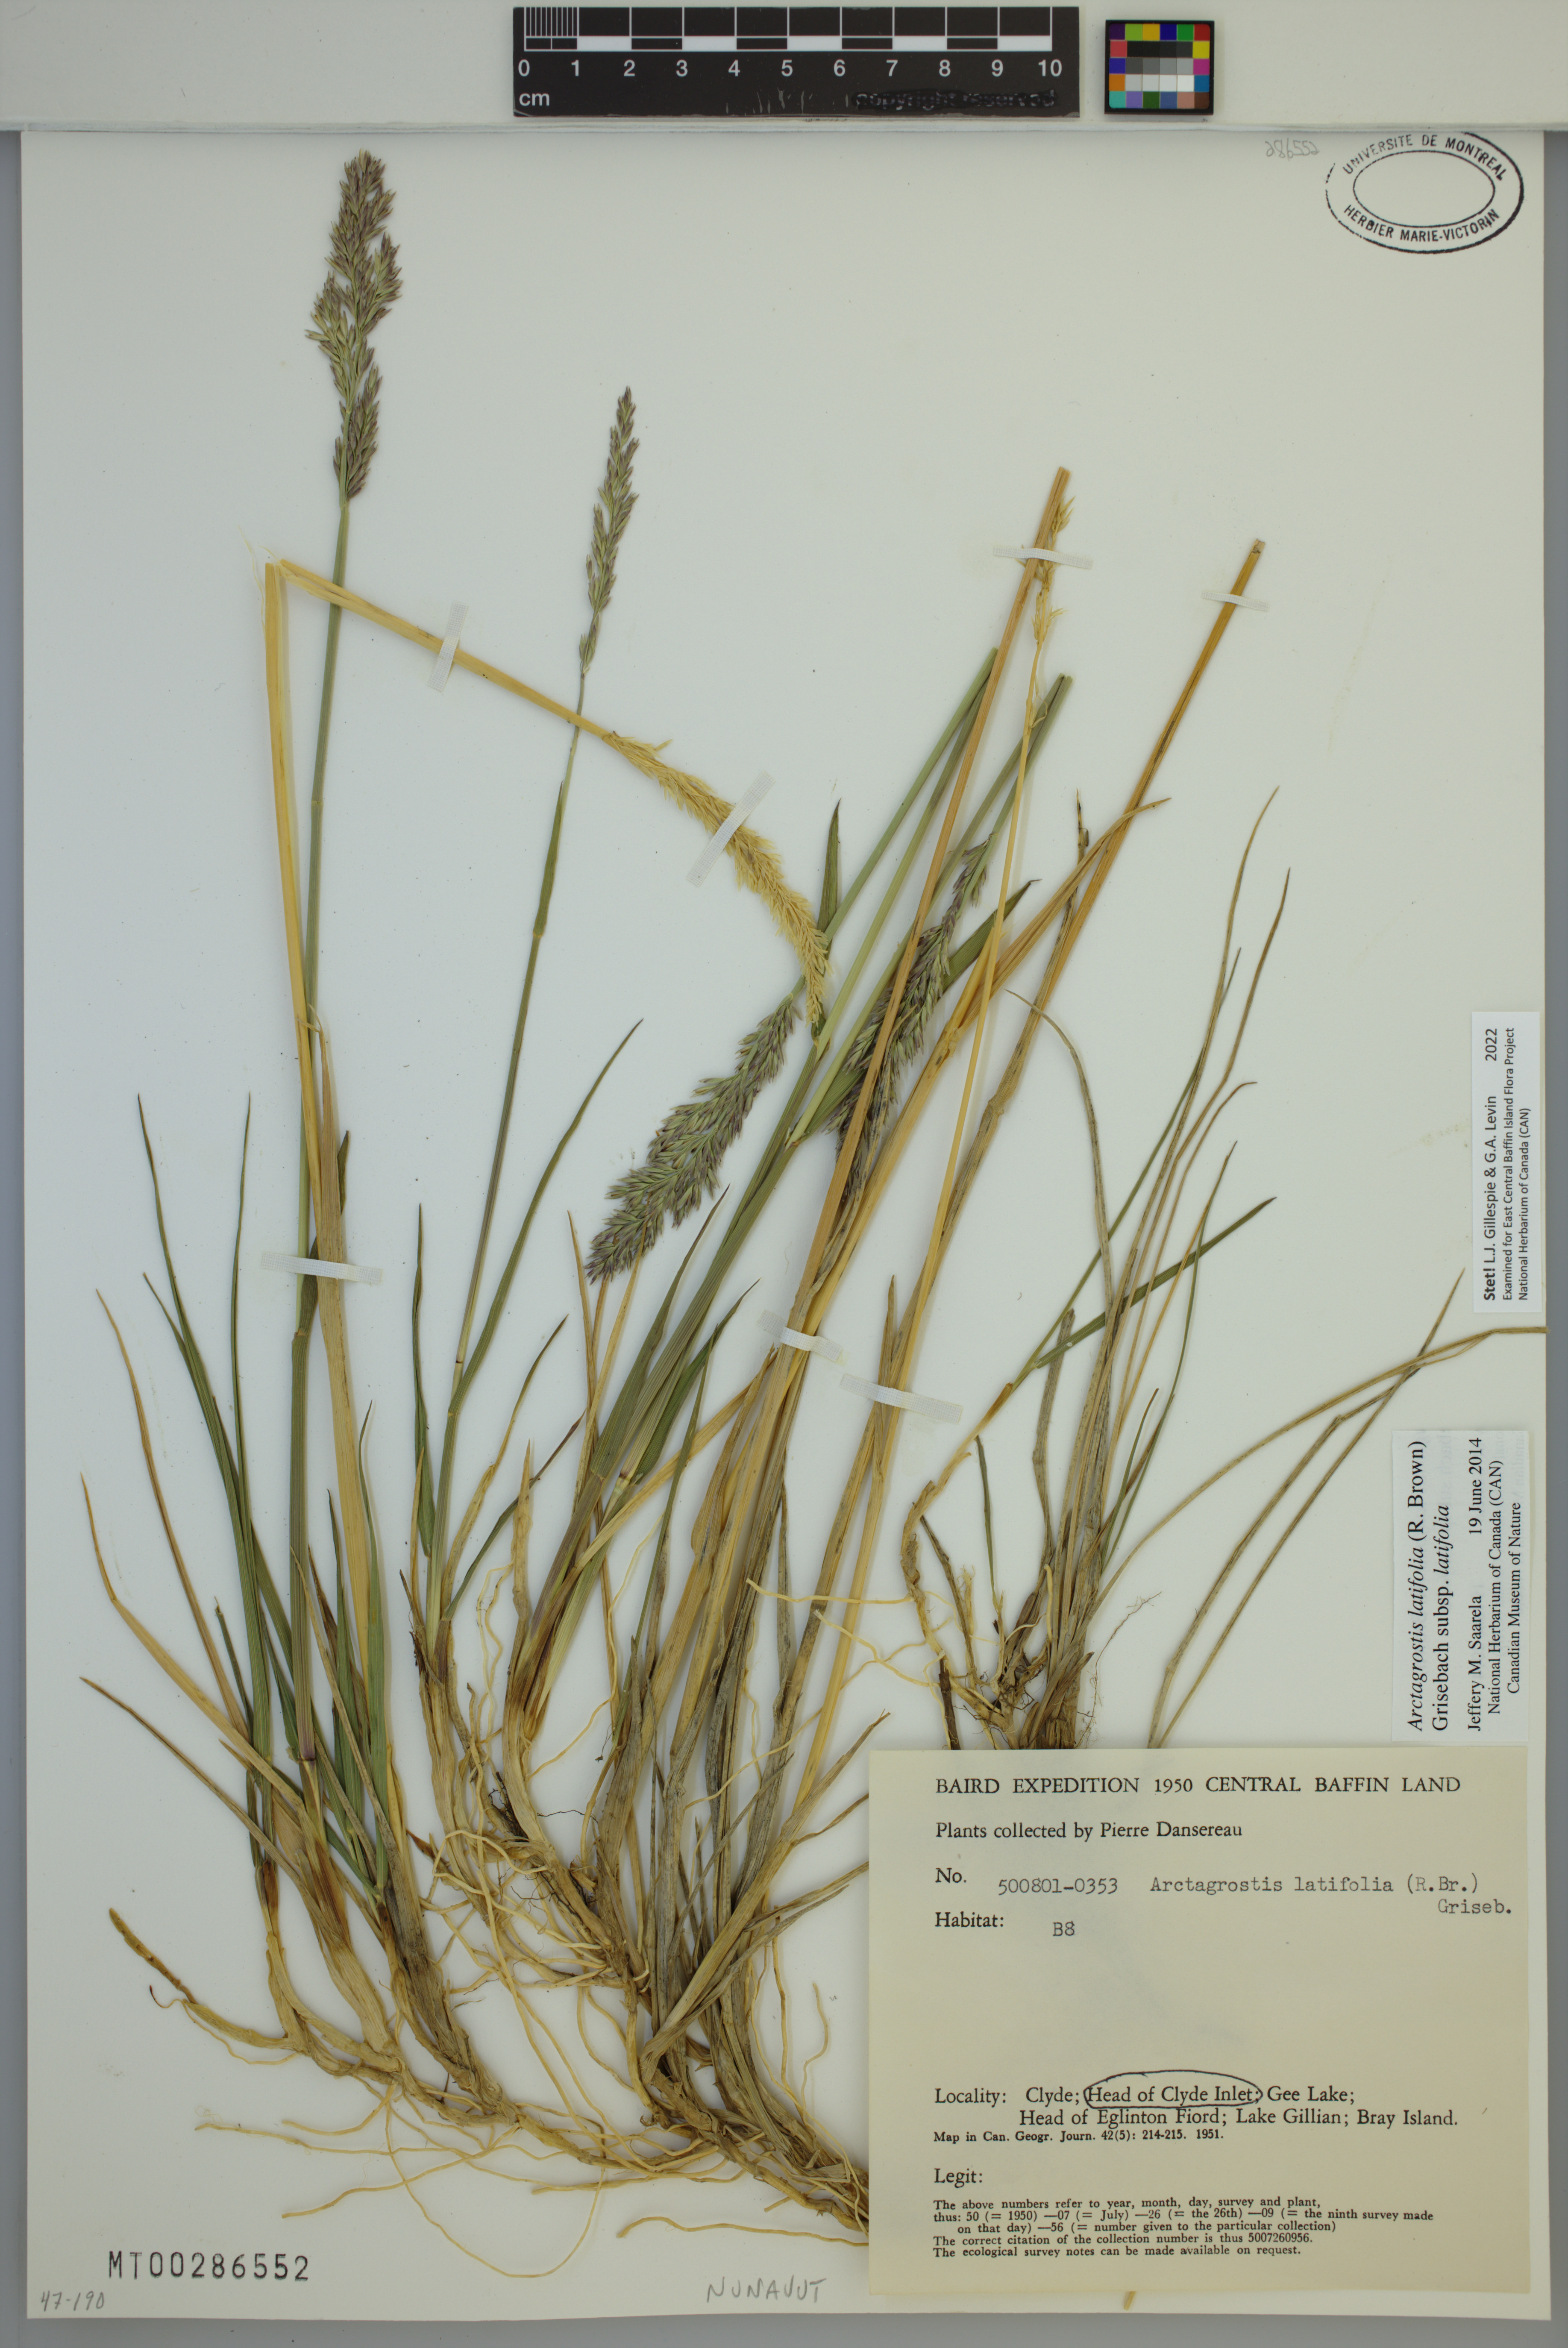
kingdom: Plantae
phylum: Tracheophyta
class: Liliopsida
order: Poales
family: Poaceae
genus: Arctagrostis
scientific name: Arctagrostis latifolia
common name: Arctic grass
